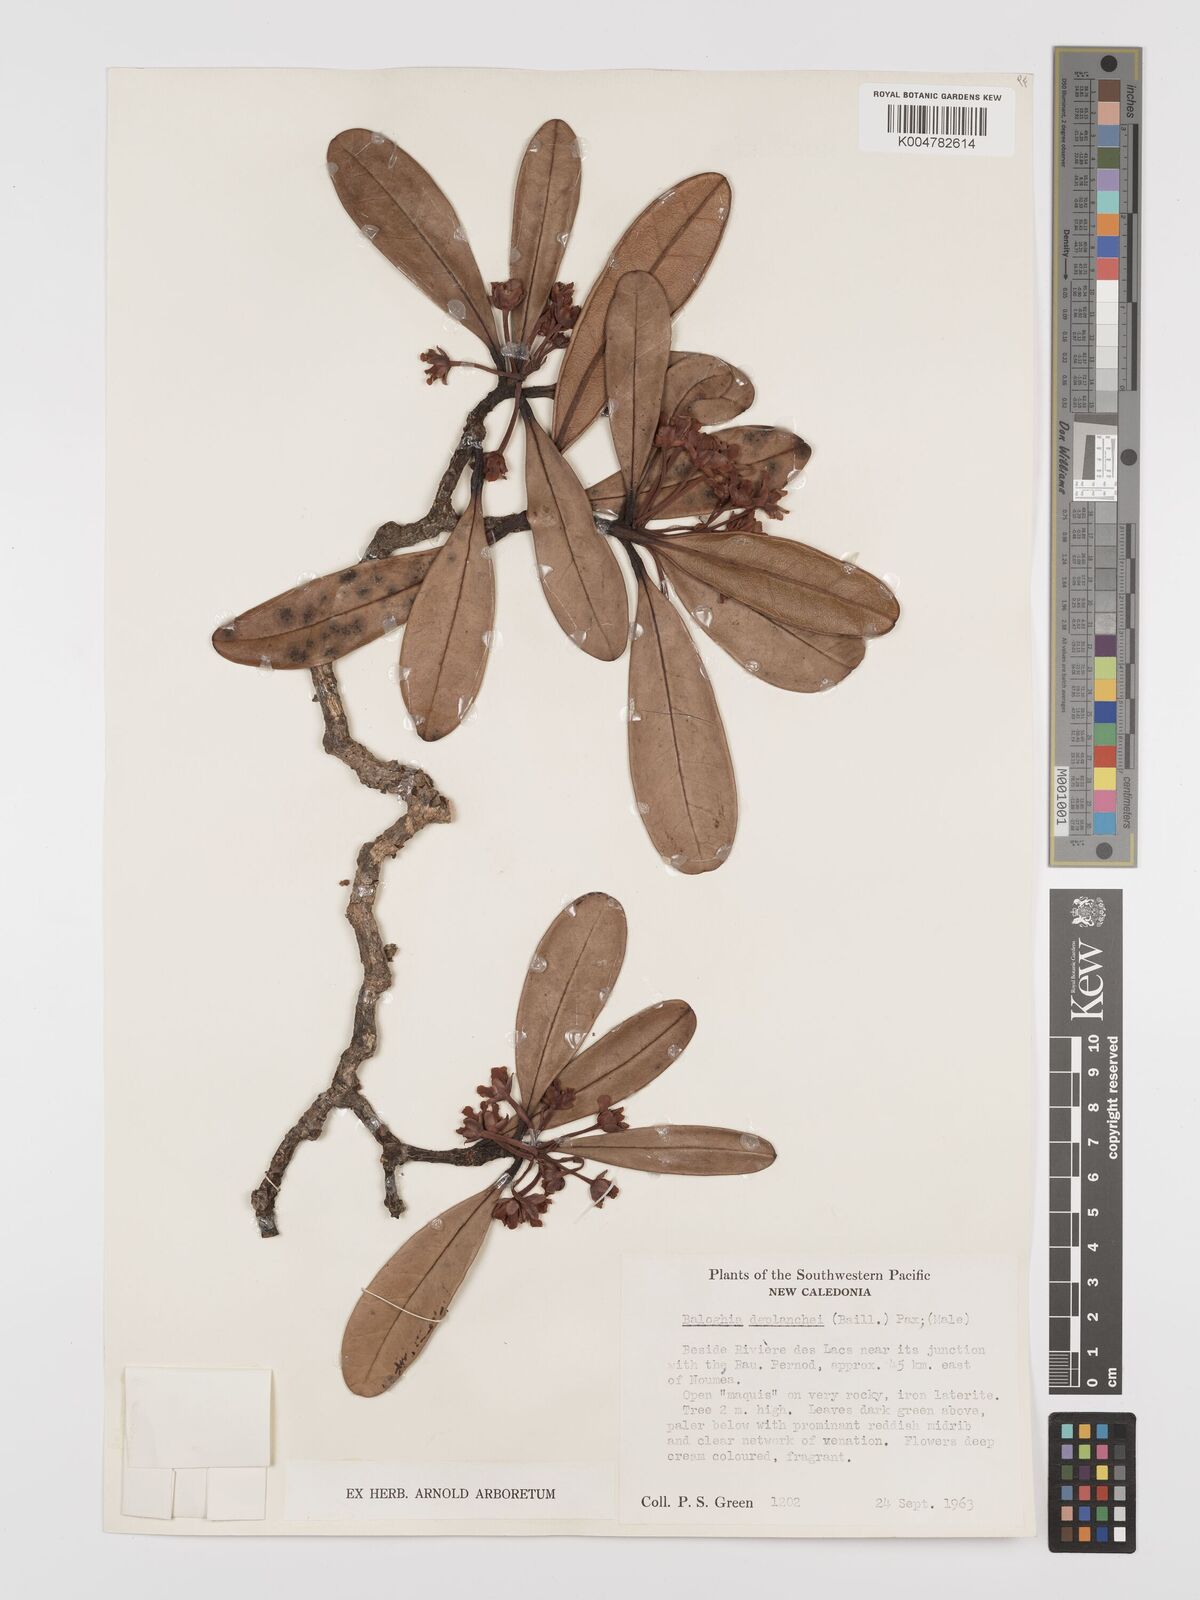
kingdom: Plantae
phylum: Tracheophyta
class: Magnoliopsida
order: Malpighiales
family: Euphorbiaceae
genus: Baloghia
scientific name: Baloghia deplanchei
